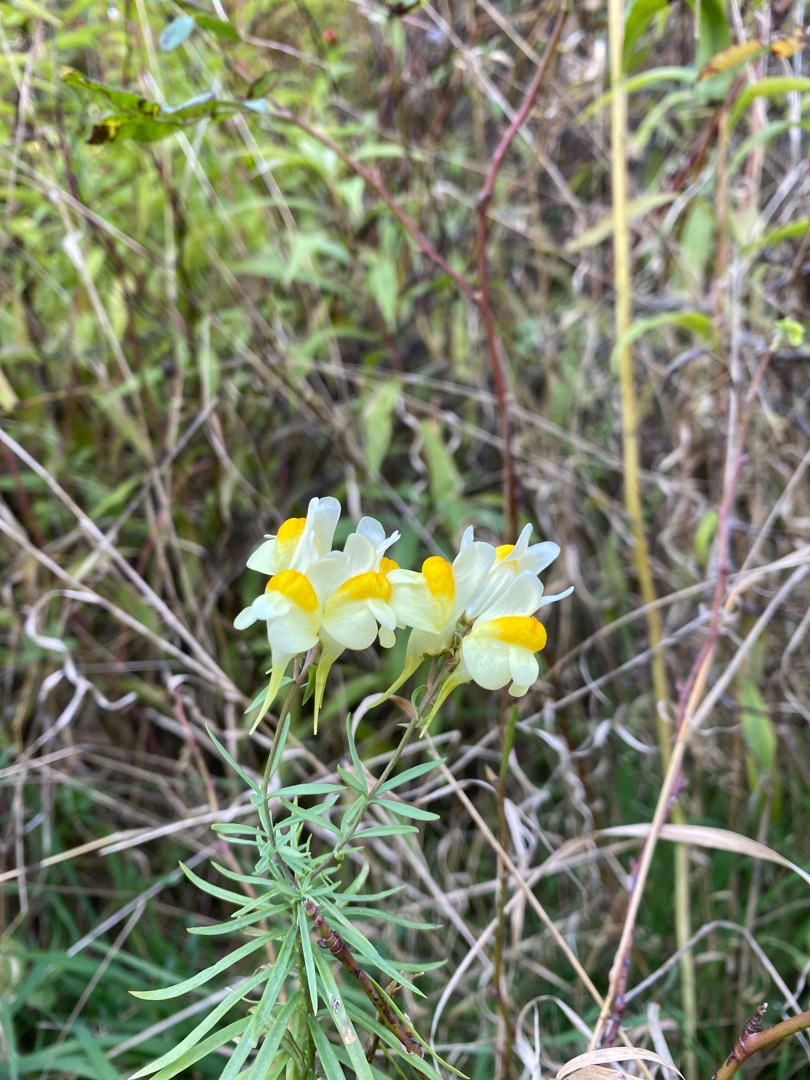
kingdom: Plantae
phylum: Tracheophyta
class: Magnoliopsida
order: Lamiales
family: Plantaginaceae
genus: Linaria
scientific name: Linaria vulgaris
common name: Almindelig torskemund
